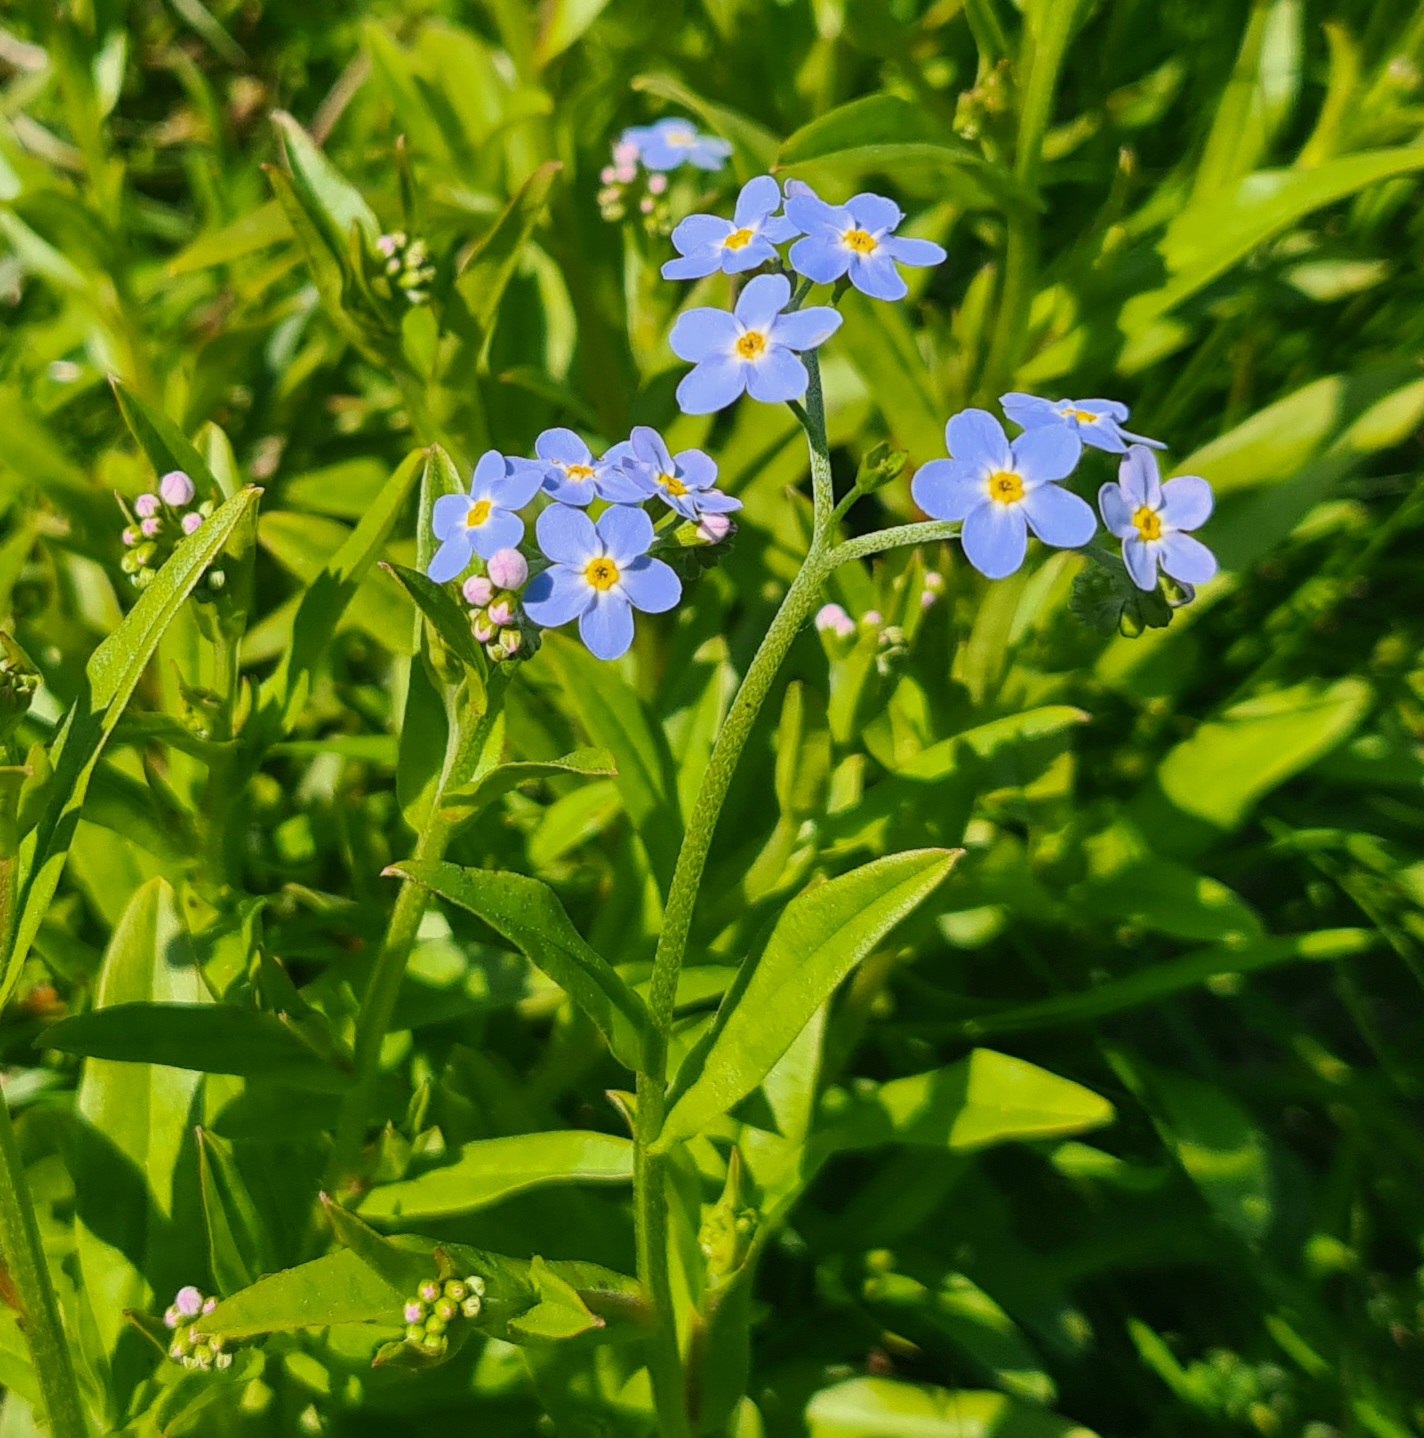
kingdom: Plantae
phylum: Tracheophyta
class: Magnoliopsida
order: Boraginales
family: Boraginaceae
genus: Myosotis
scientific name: Myosotis scorpioides
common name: Eng-forglemmigej
